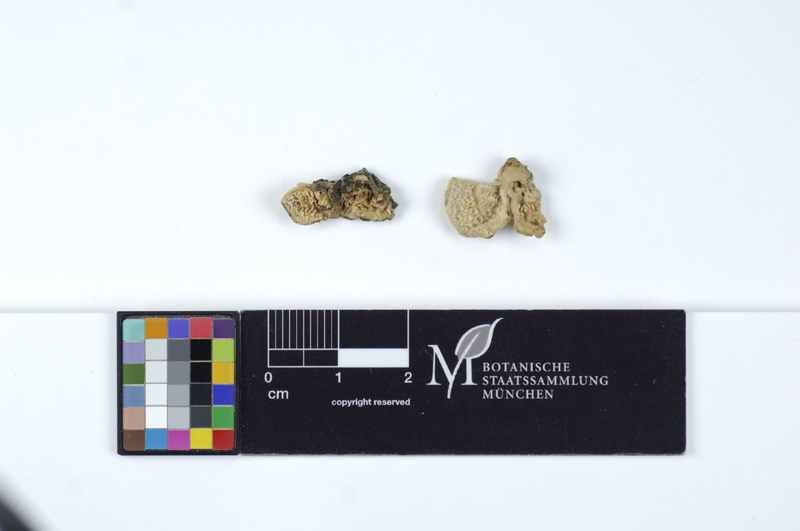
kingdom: Plantae
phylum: Tracheophyta
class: Magnoliopsida
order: Malpighiales
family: Salicaceae
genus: Populus
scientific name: Populus
